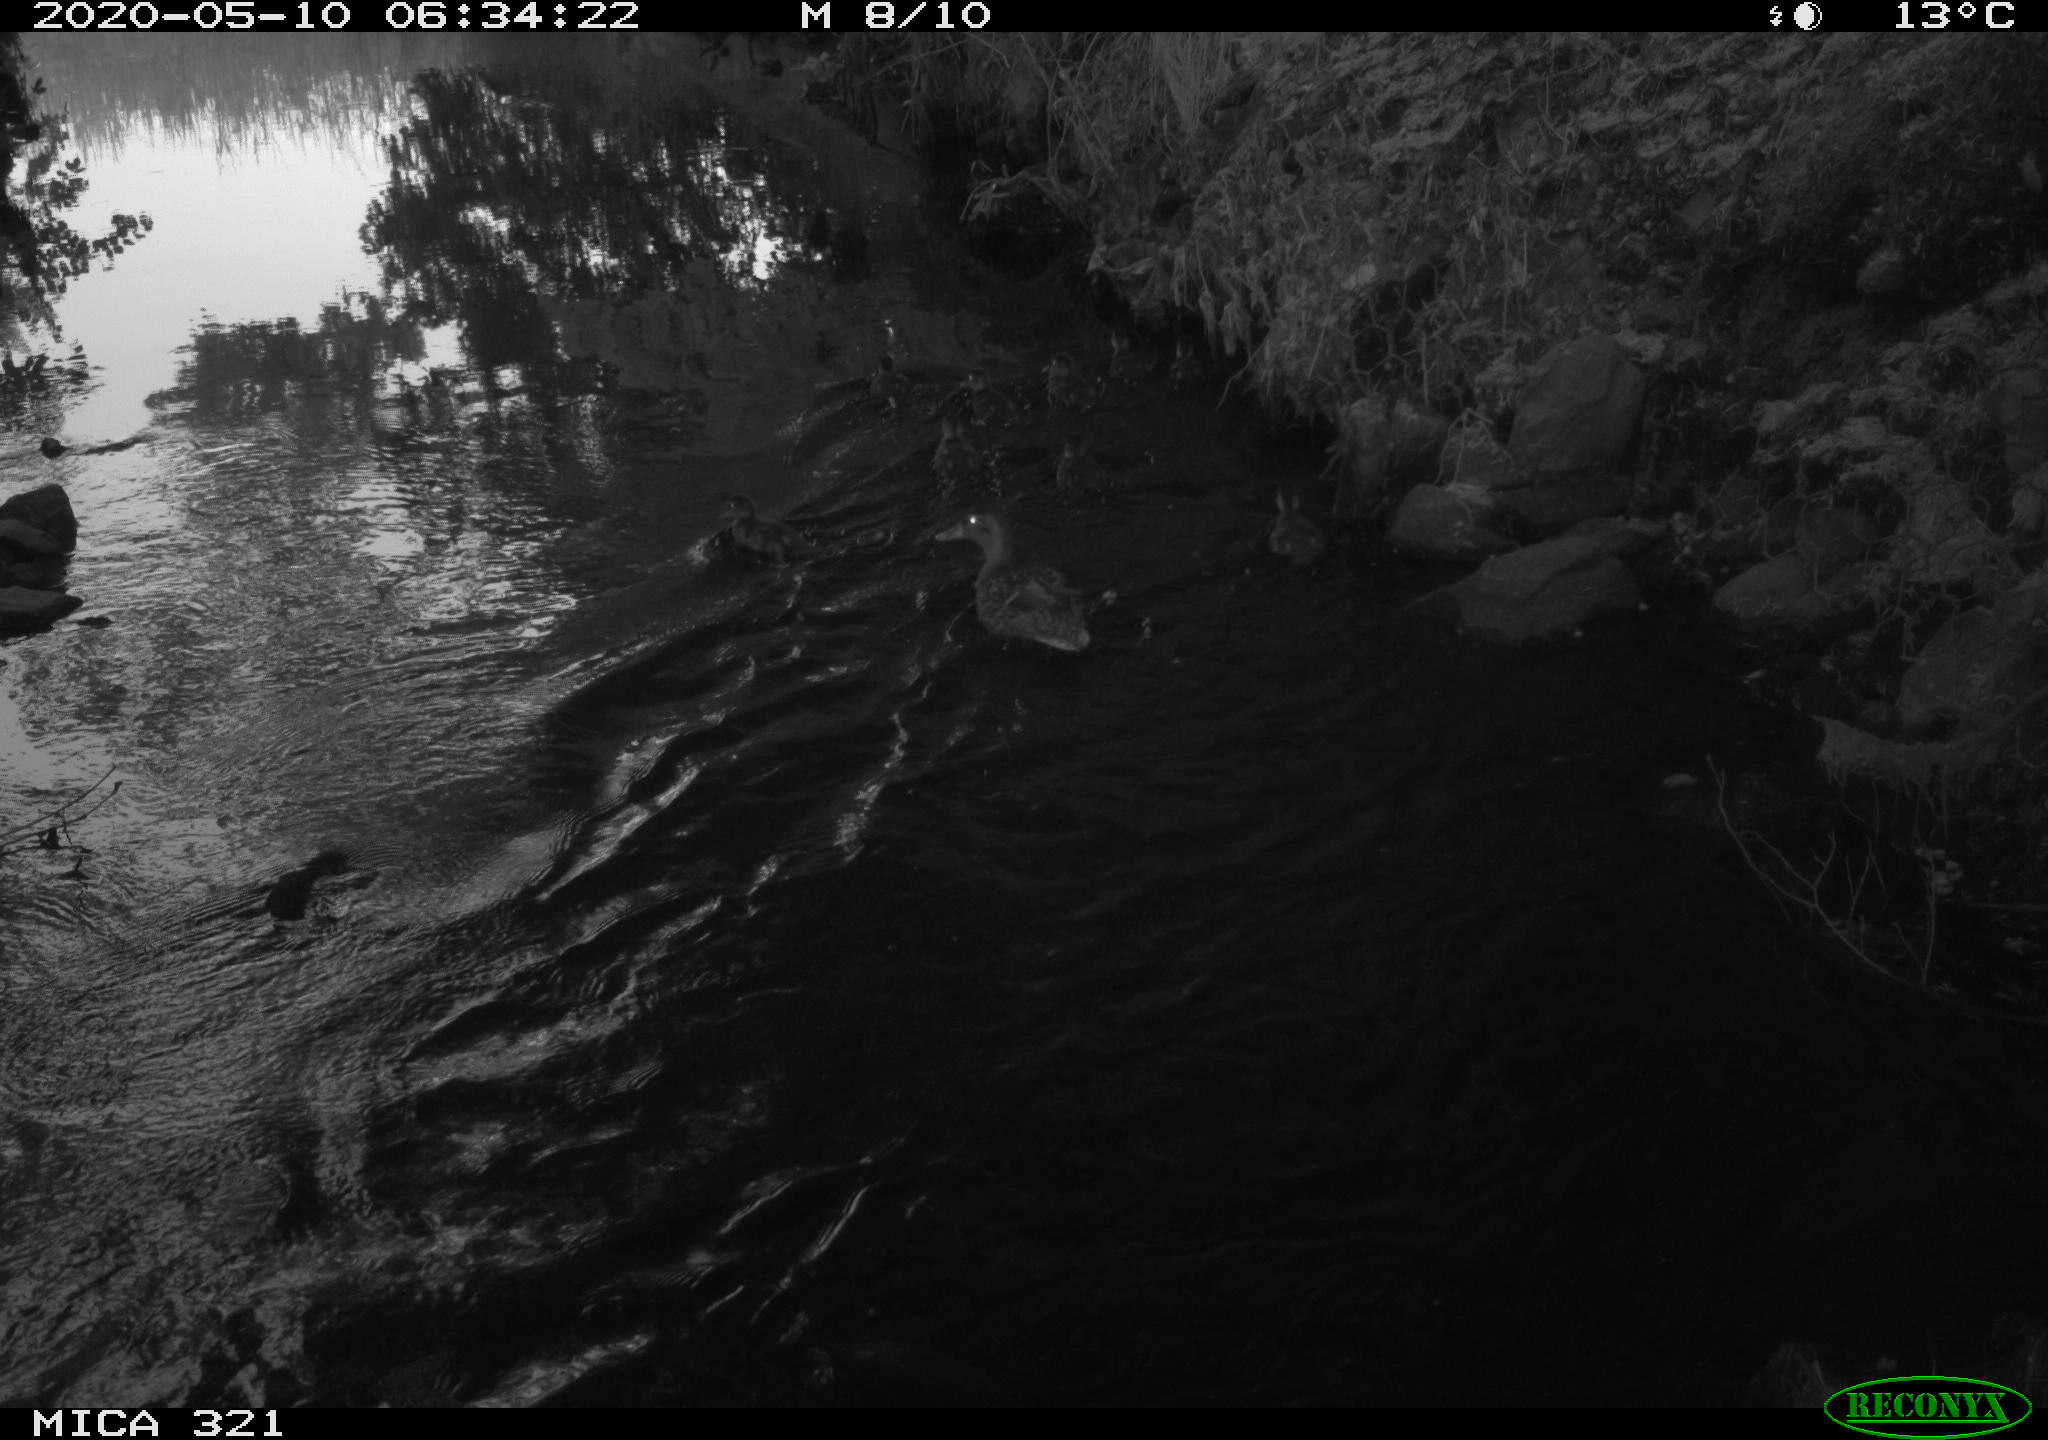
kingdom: Animalia
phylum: Chordata
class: Aves
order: Anseriformes
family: Anatidae
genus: Anas
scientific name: Anas platyrhynchos
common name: Mallard
